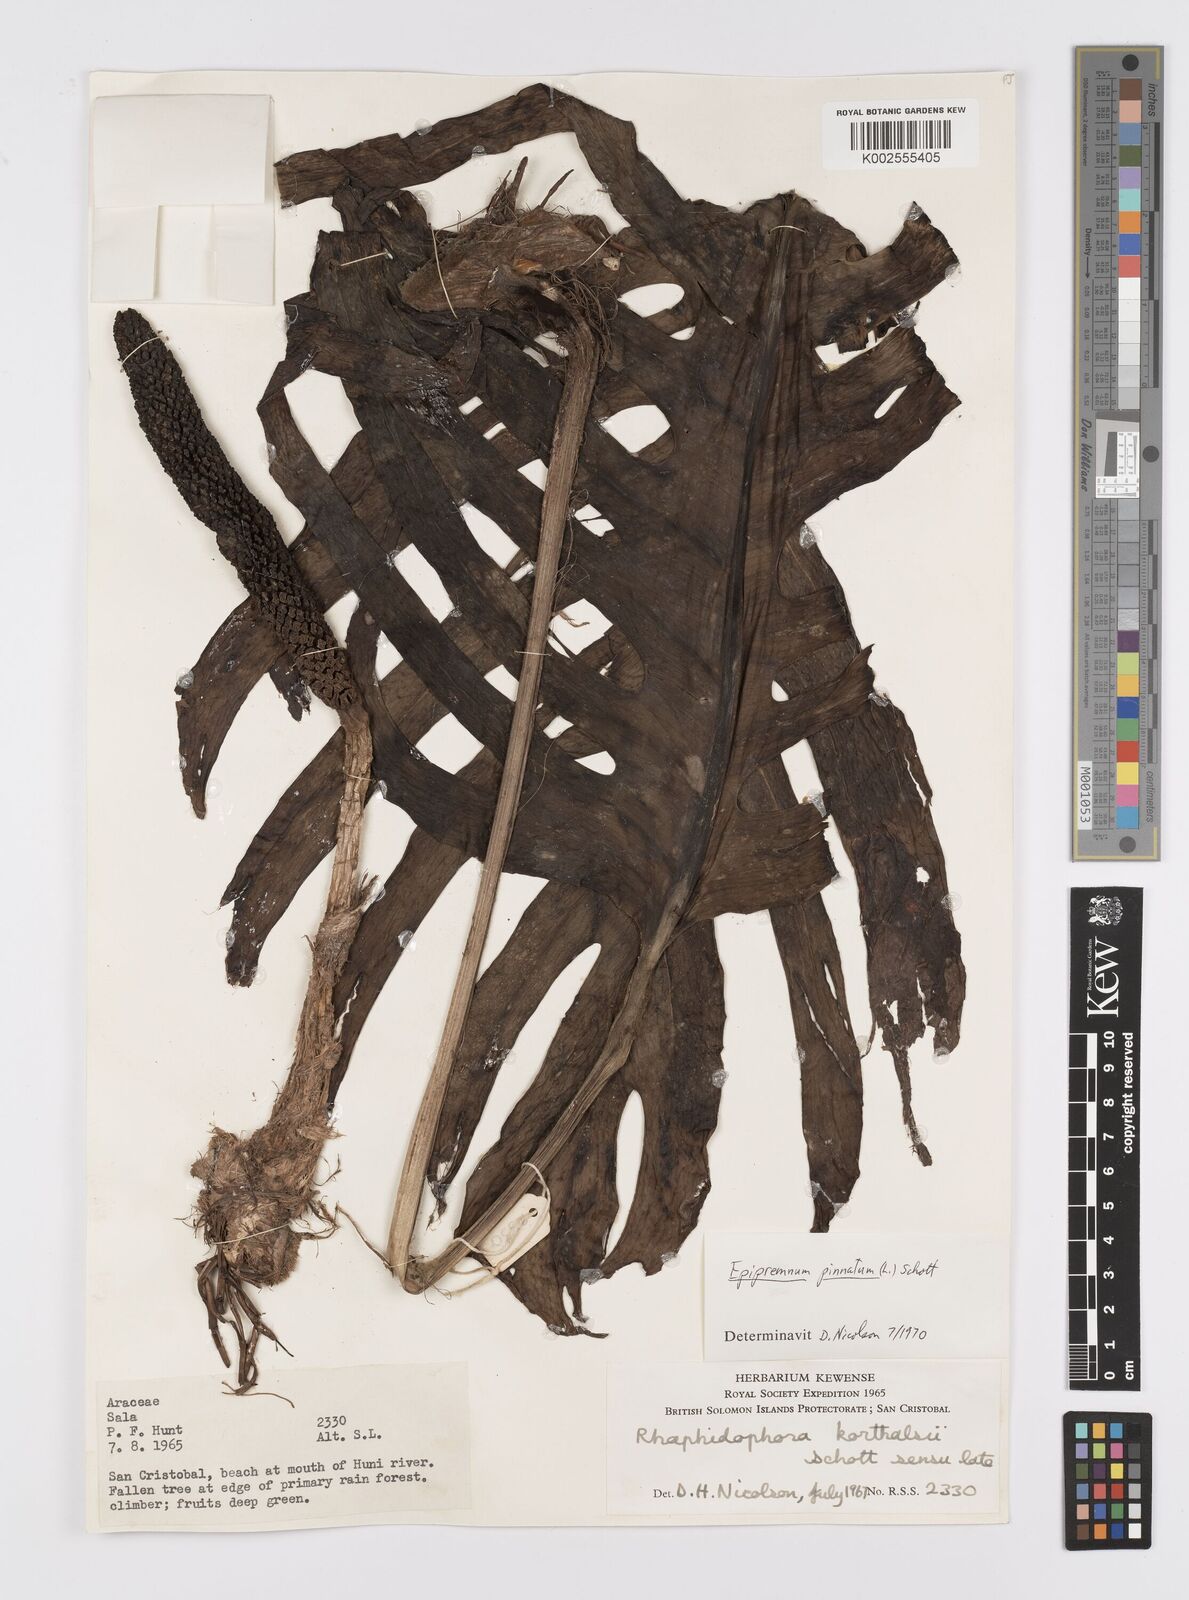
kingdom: Plantae
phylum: Tracheophyta
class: Liliopsida
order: Alismatales
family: Araceae
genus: Epipremnum
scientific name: Epipremnum pinnatum
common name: Centipede tongavine
